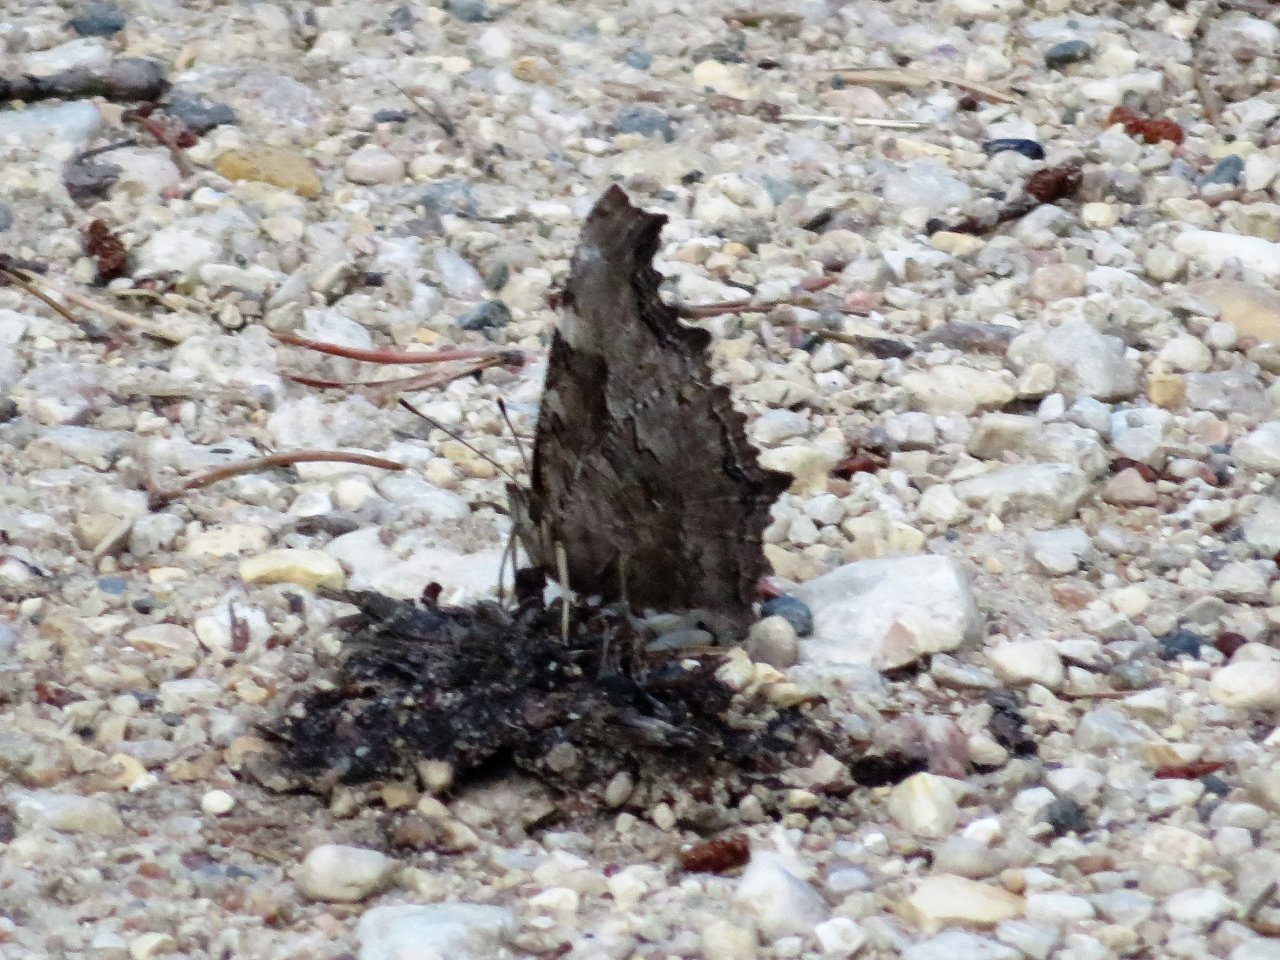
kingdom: Animalia
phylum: Arthropoda
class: Insecta
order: Lepidoptera
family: Nymphalidae
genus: Polygonia
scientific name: Polygonia vaualbum
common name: Compton Tortoiseshell
